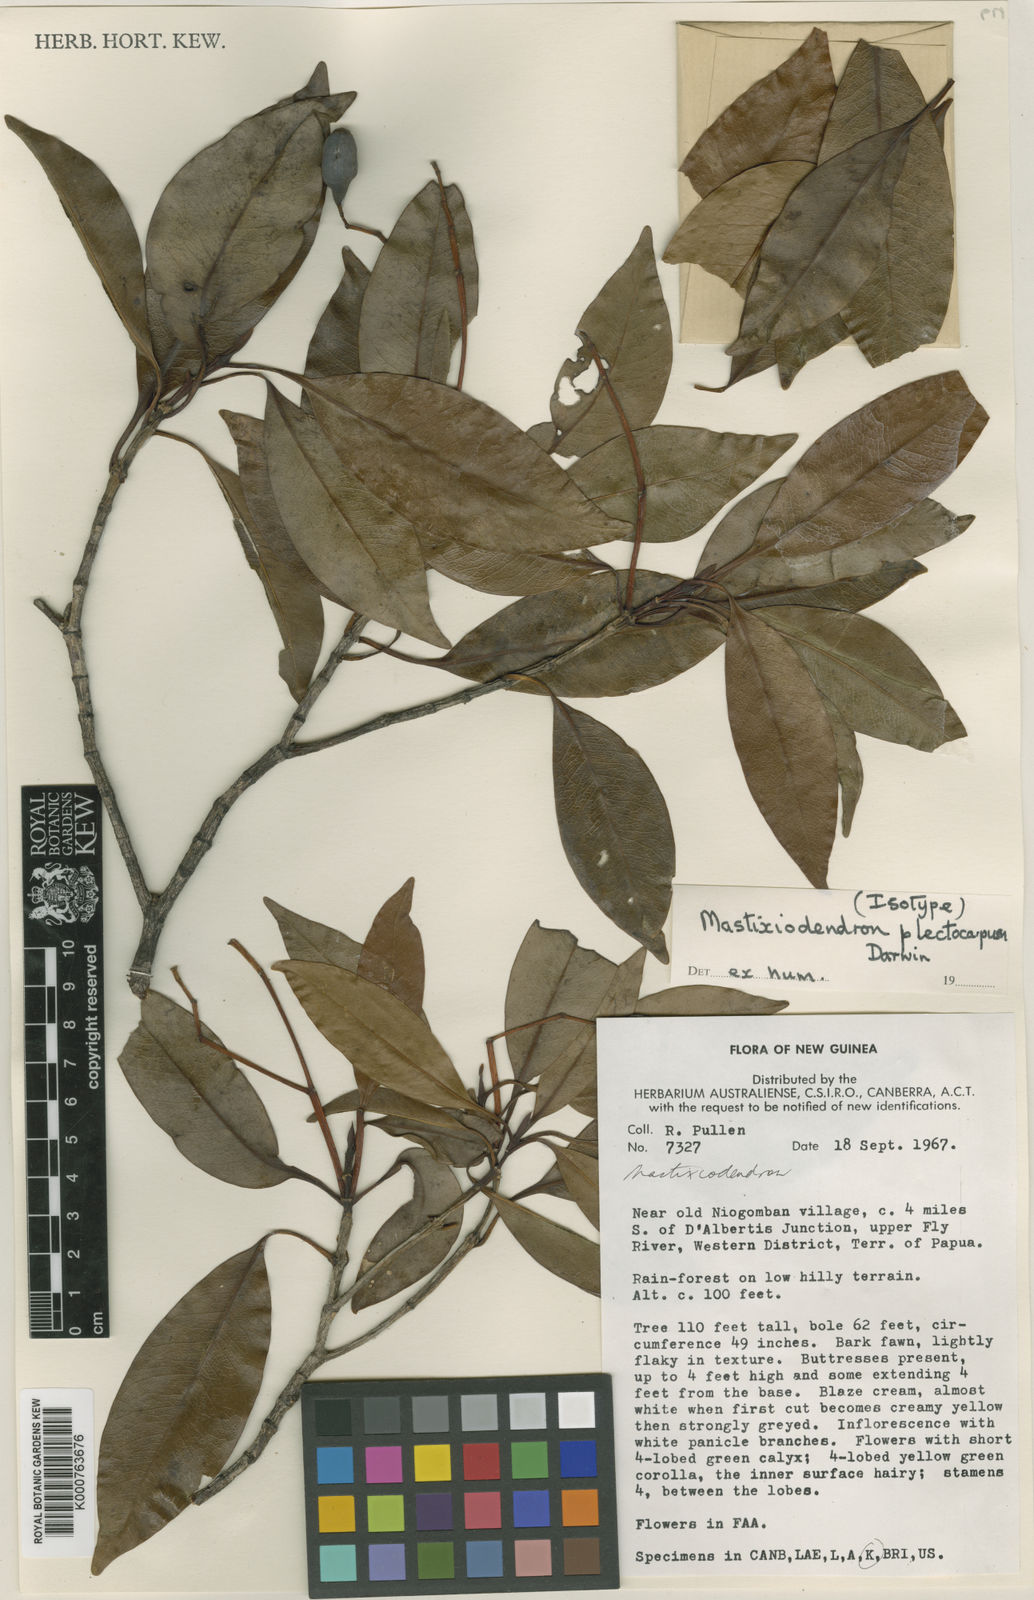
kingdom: Plantae
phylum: Tracheophyta
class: Magnoliopsida
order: Gentianales
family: Rubiaceae
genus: Mastixiodendron
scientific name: Mastixiodendron plectocarpum
